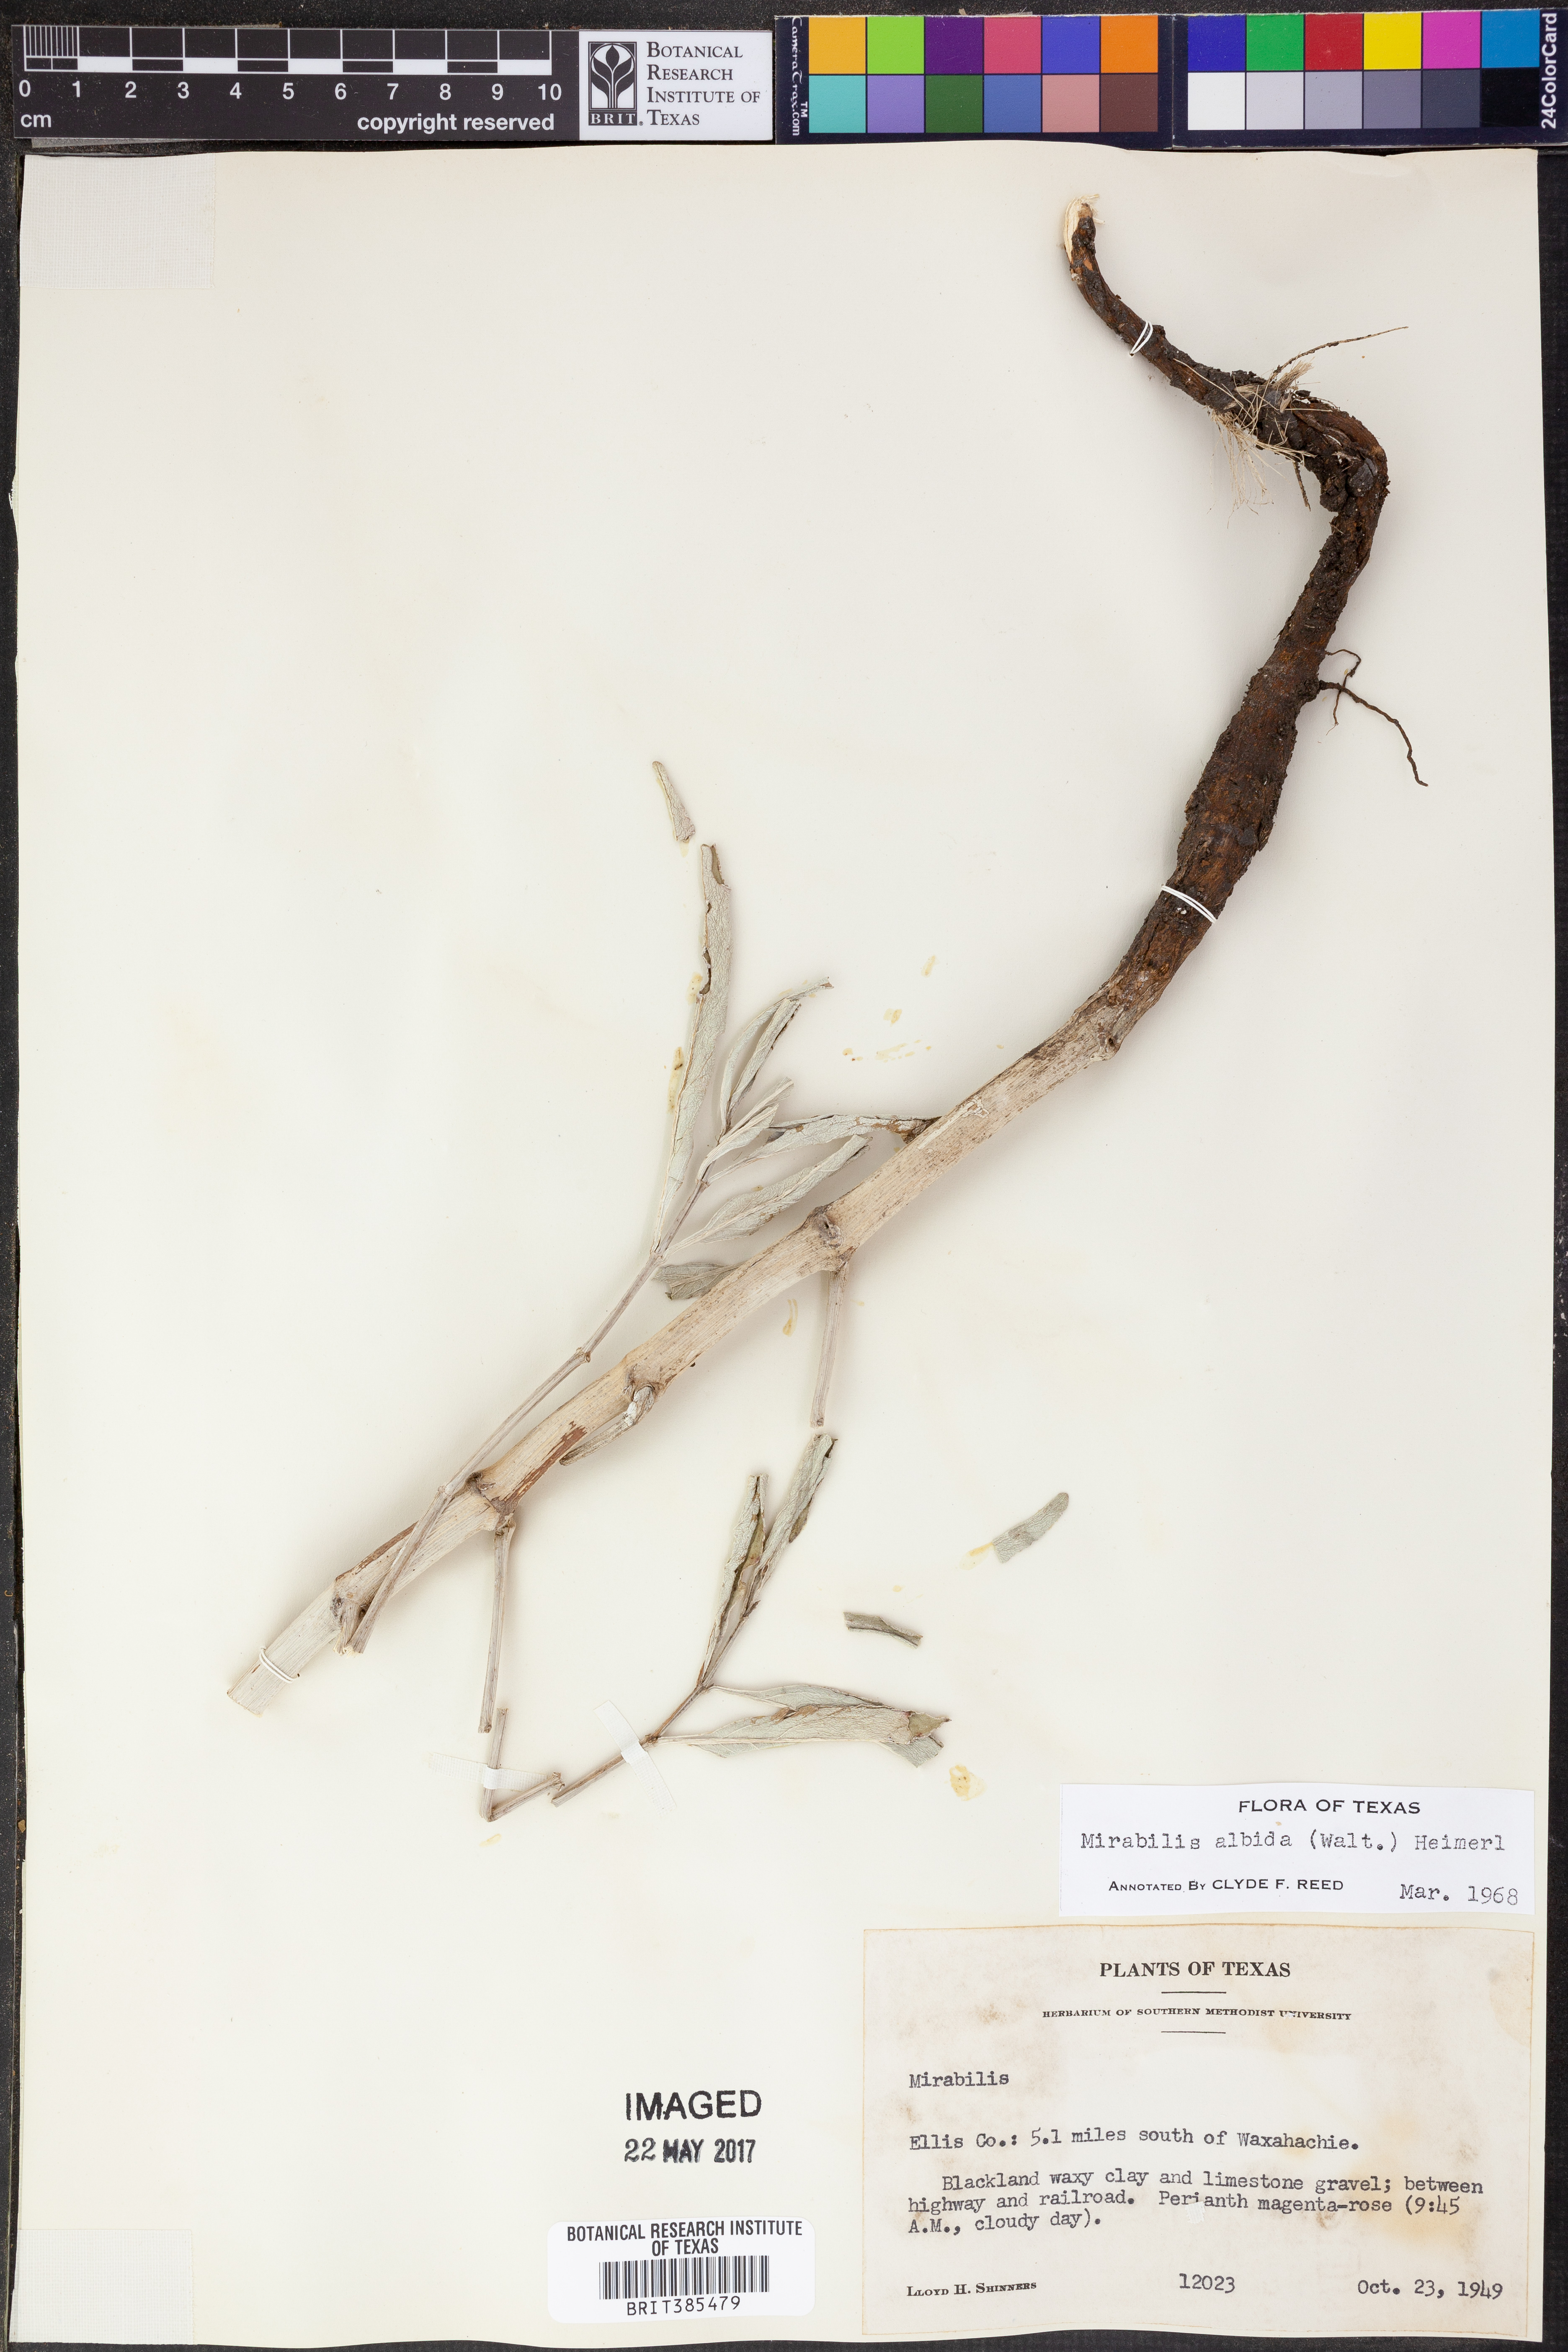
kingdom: Plantae
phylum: Tracheophyta
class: Magnoliopsida
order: Caryophyllales
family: Nyctaginaceae
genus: Mirabilis
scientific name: Mirabilis albida
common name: Hairy four-o'clock
